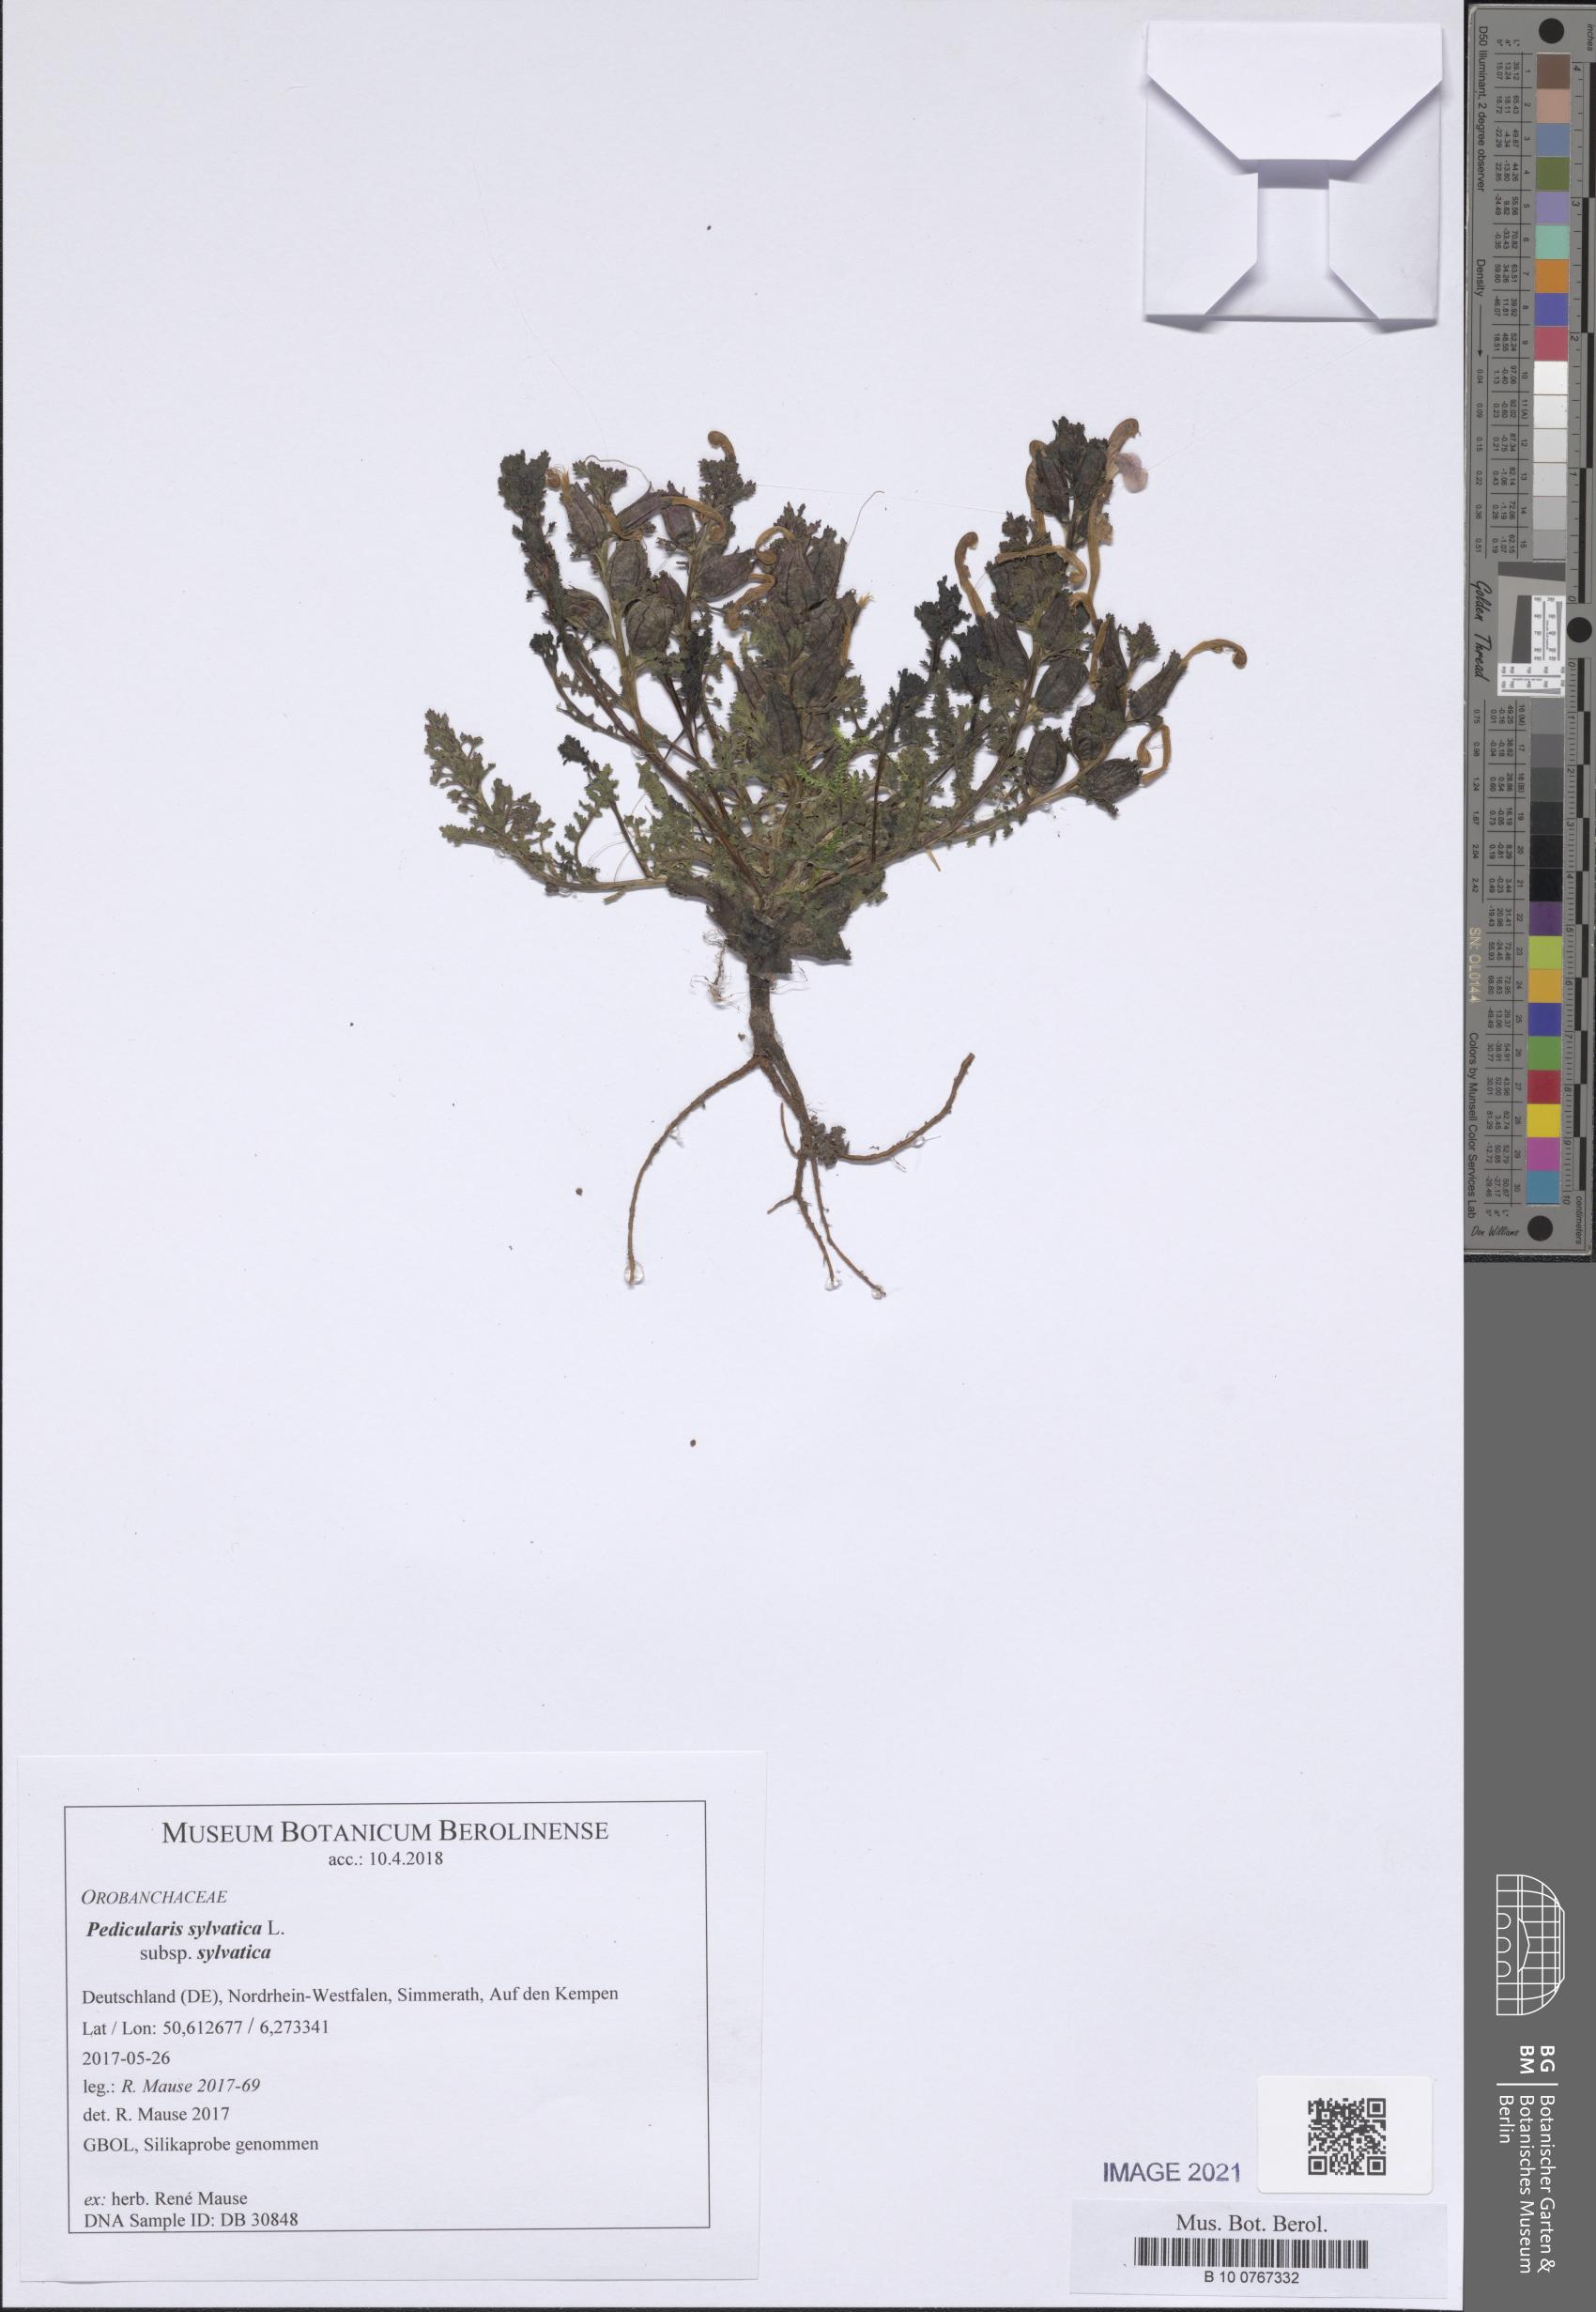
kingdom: Plantae
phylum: Tracheophyta
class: Magnoliopsida
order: Lamiales
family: Orobanchaceae
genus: Pedicularis
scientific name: Pedicularis sylvatica
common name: Lousewort
